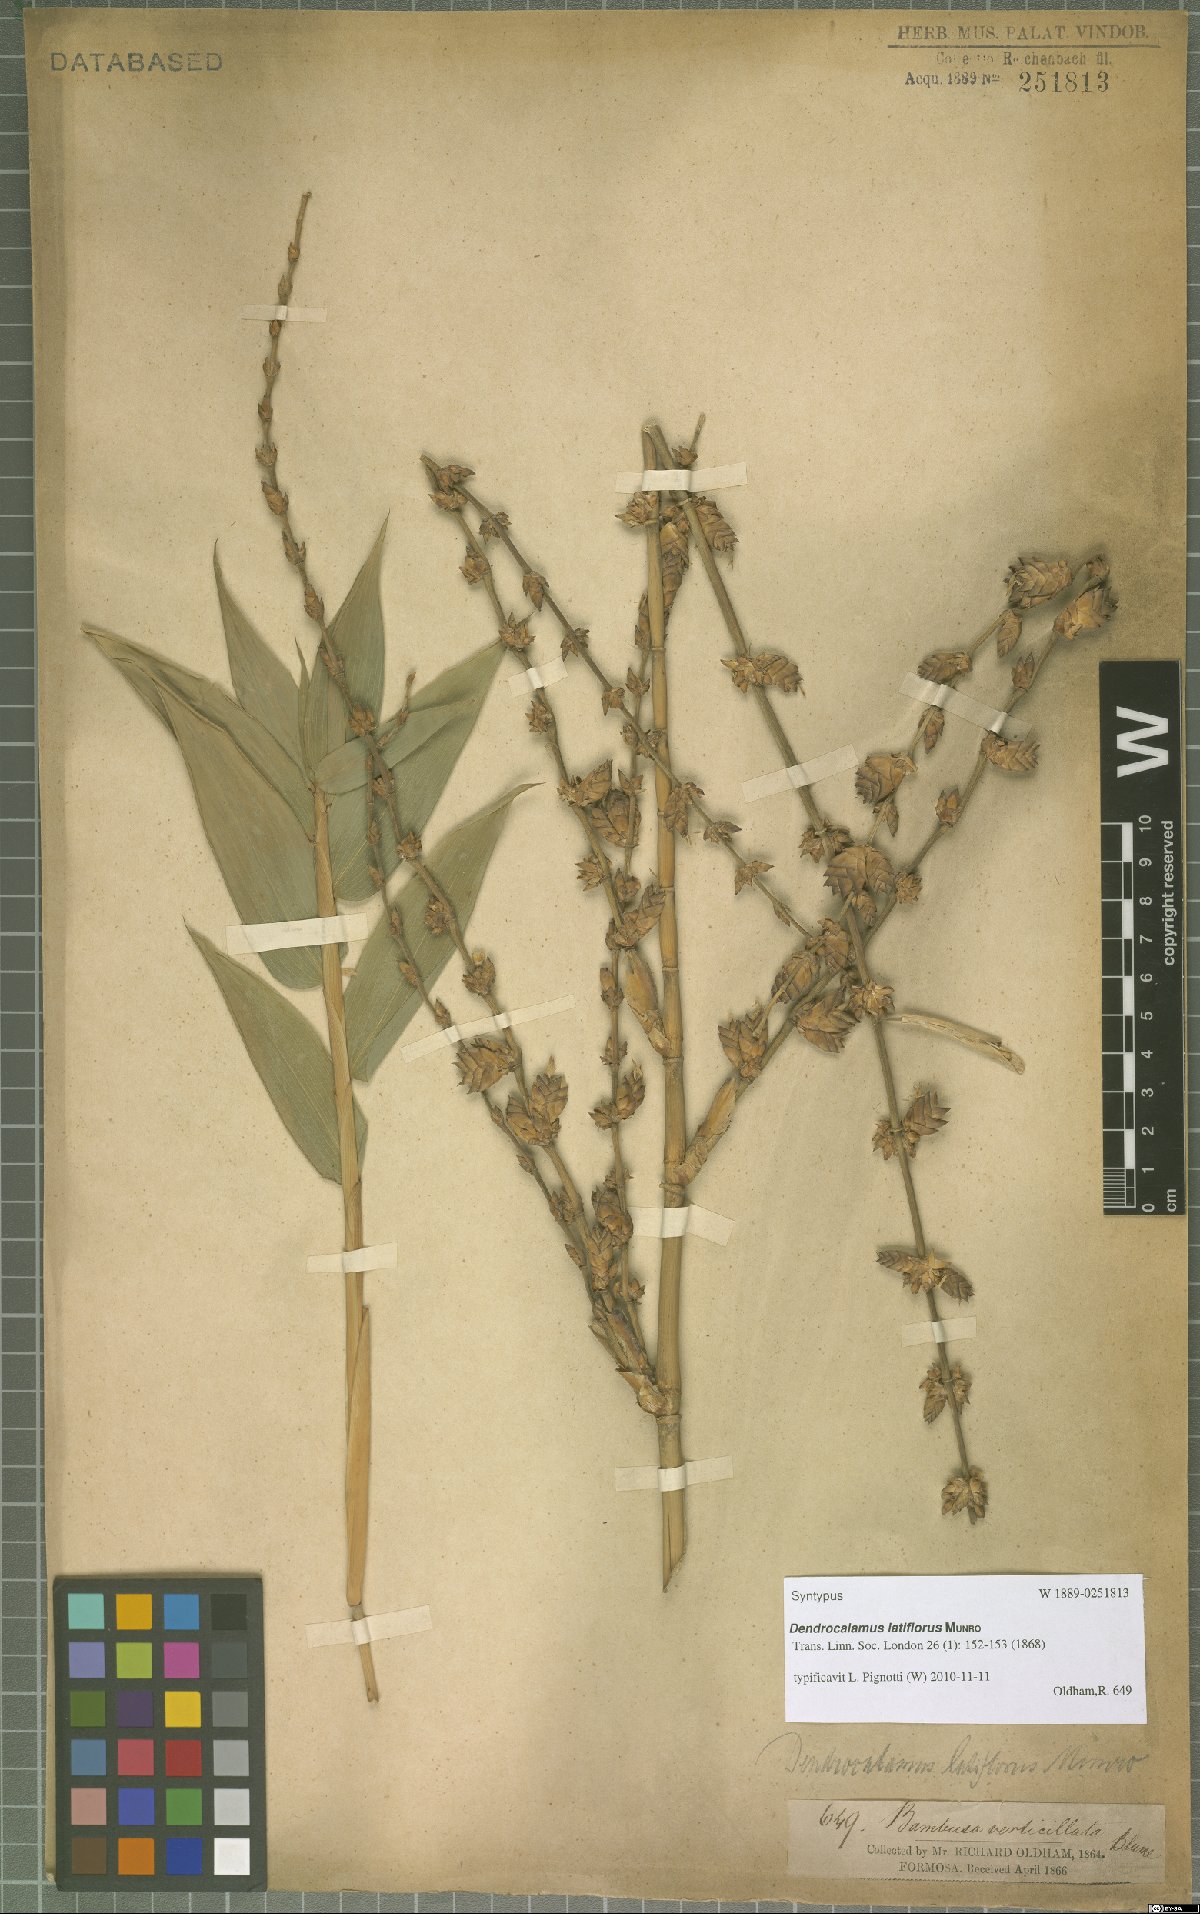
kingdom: Plantae
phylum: Tracheophyta
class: Liliopsida
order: Poales
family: Poaceae
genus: Dendrocalamus
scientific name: Dendrocalamus latiflorus
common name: Giant bamboo
